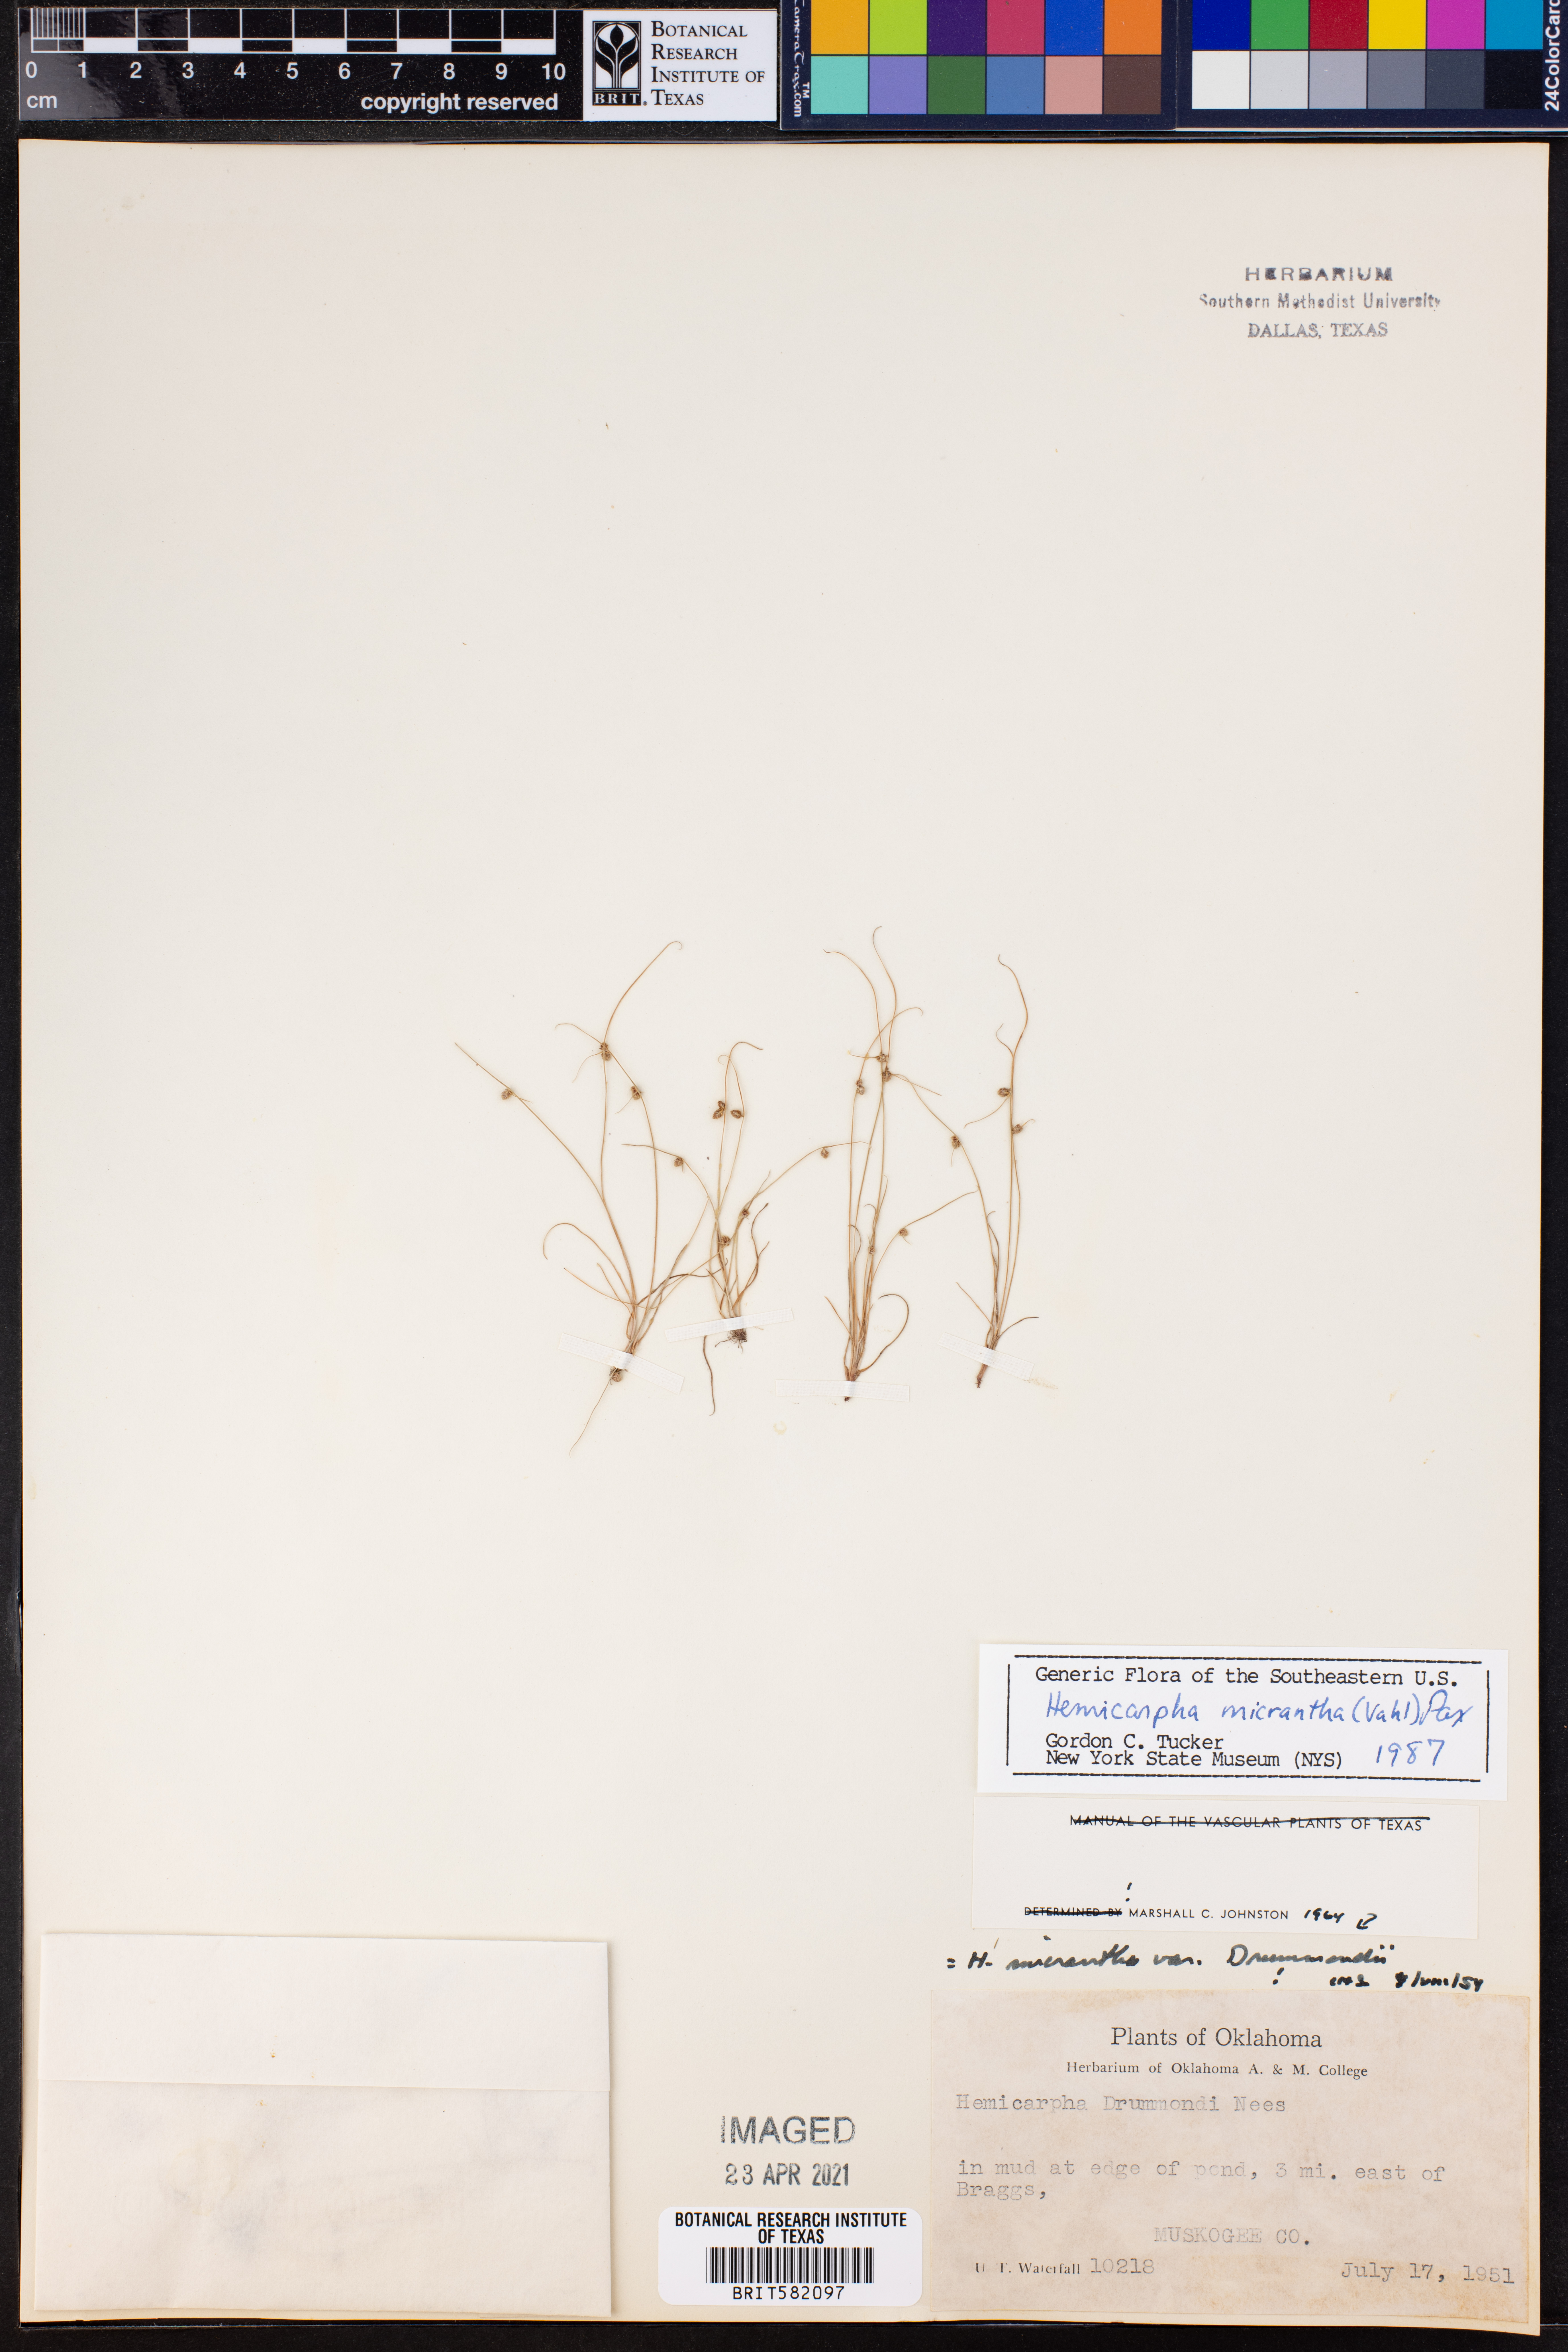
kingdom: Plantae
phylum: Tracheophyta
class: Liliopsida
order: Poales
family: Cyperaceae
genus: Cyperus
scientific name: Cyperus subsquarrosus
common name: Dwarf bulrush
